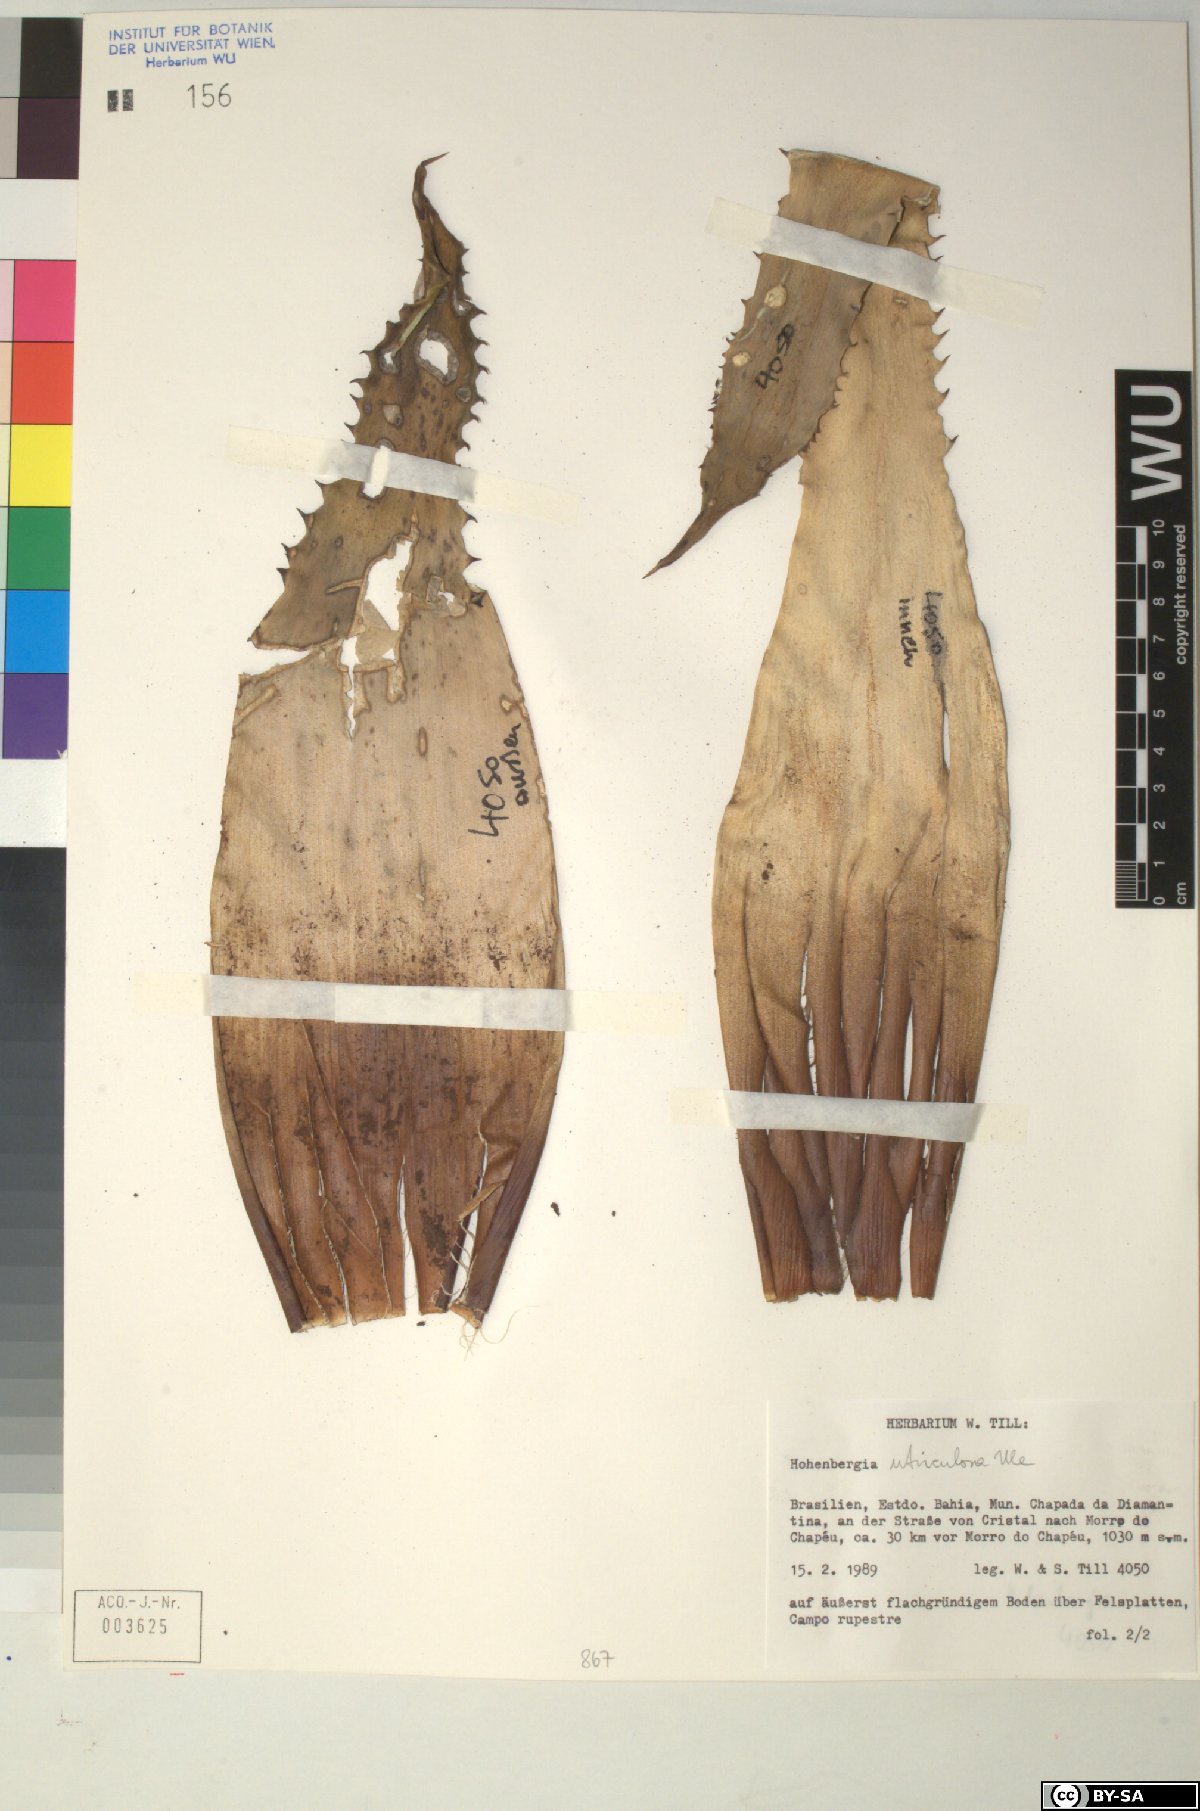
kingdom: Plantae
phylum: Tracheophyta
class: Liliopsida
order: Poales
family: Bromeliaceae
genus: Hohenbergia
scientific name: Hohenbergia
